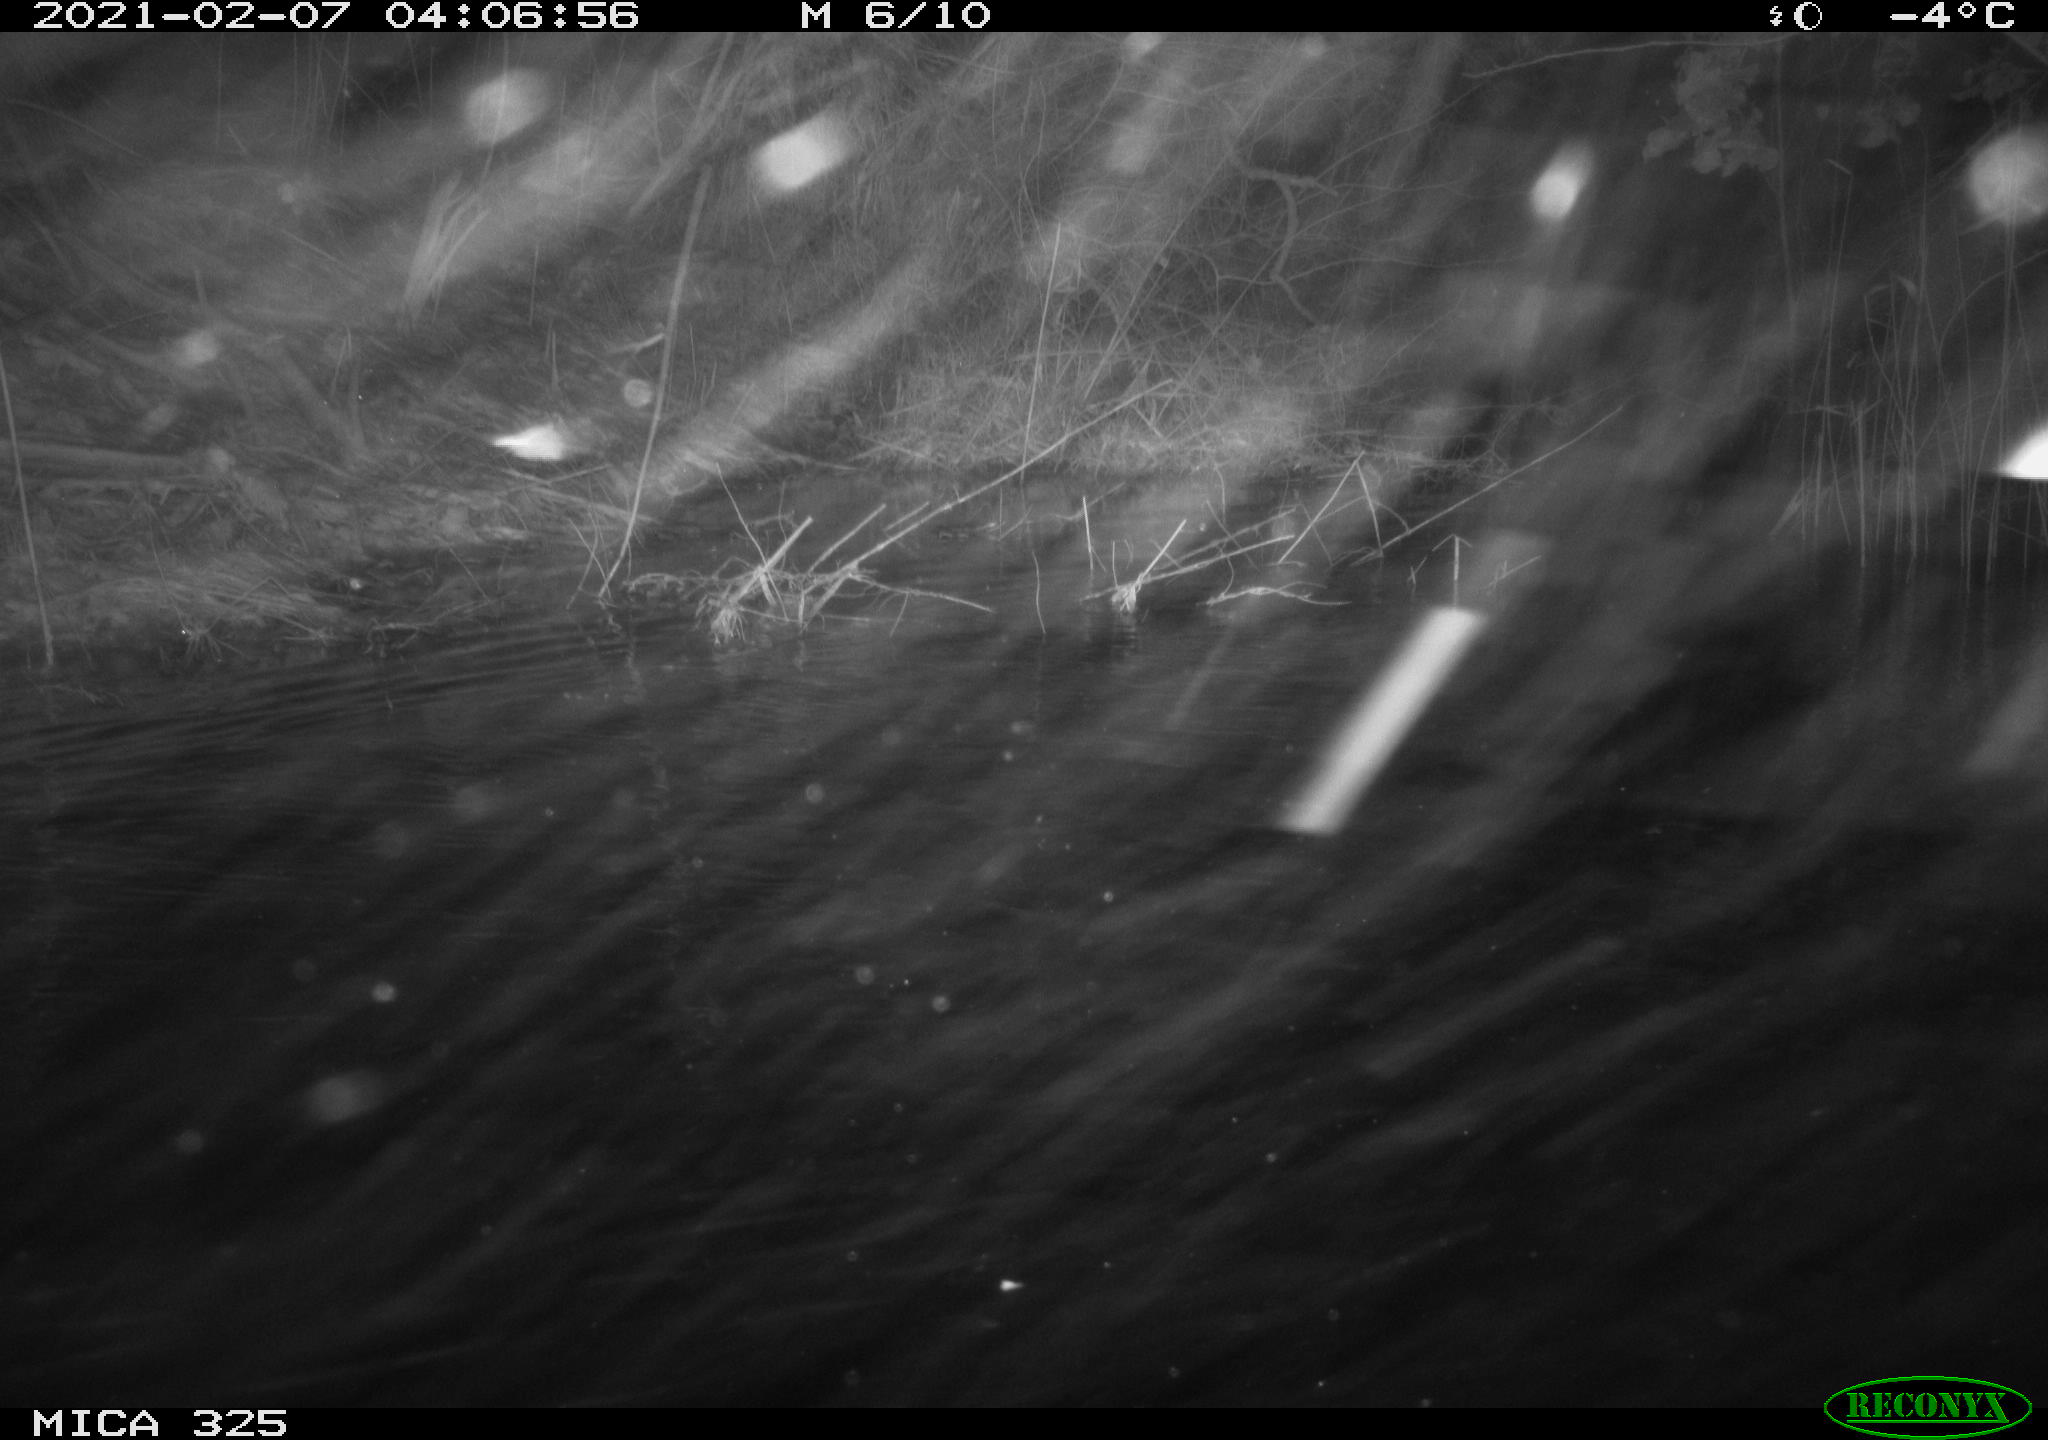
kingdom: Animalia
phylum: Chordata
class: Mammalia
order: Rodentia
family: Myocastoridae
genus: Myocastor
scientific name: Myocastor coypus
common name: Coypu
